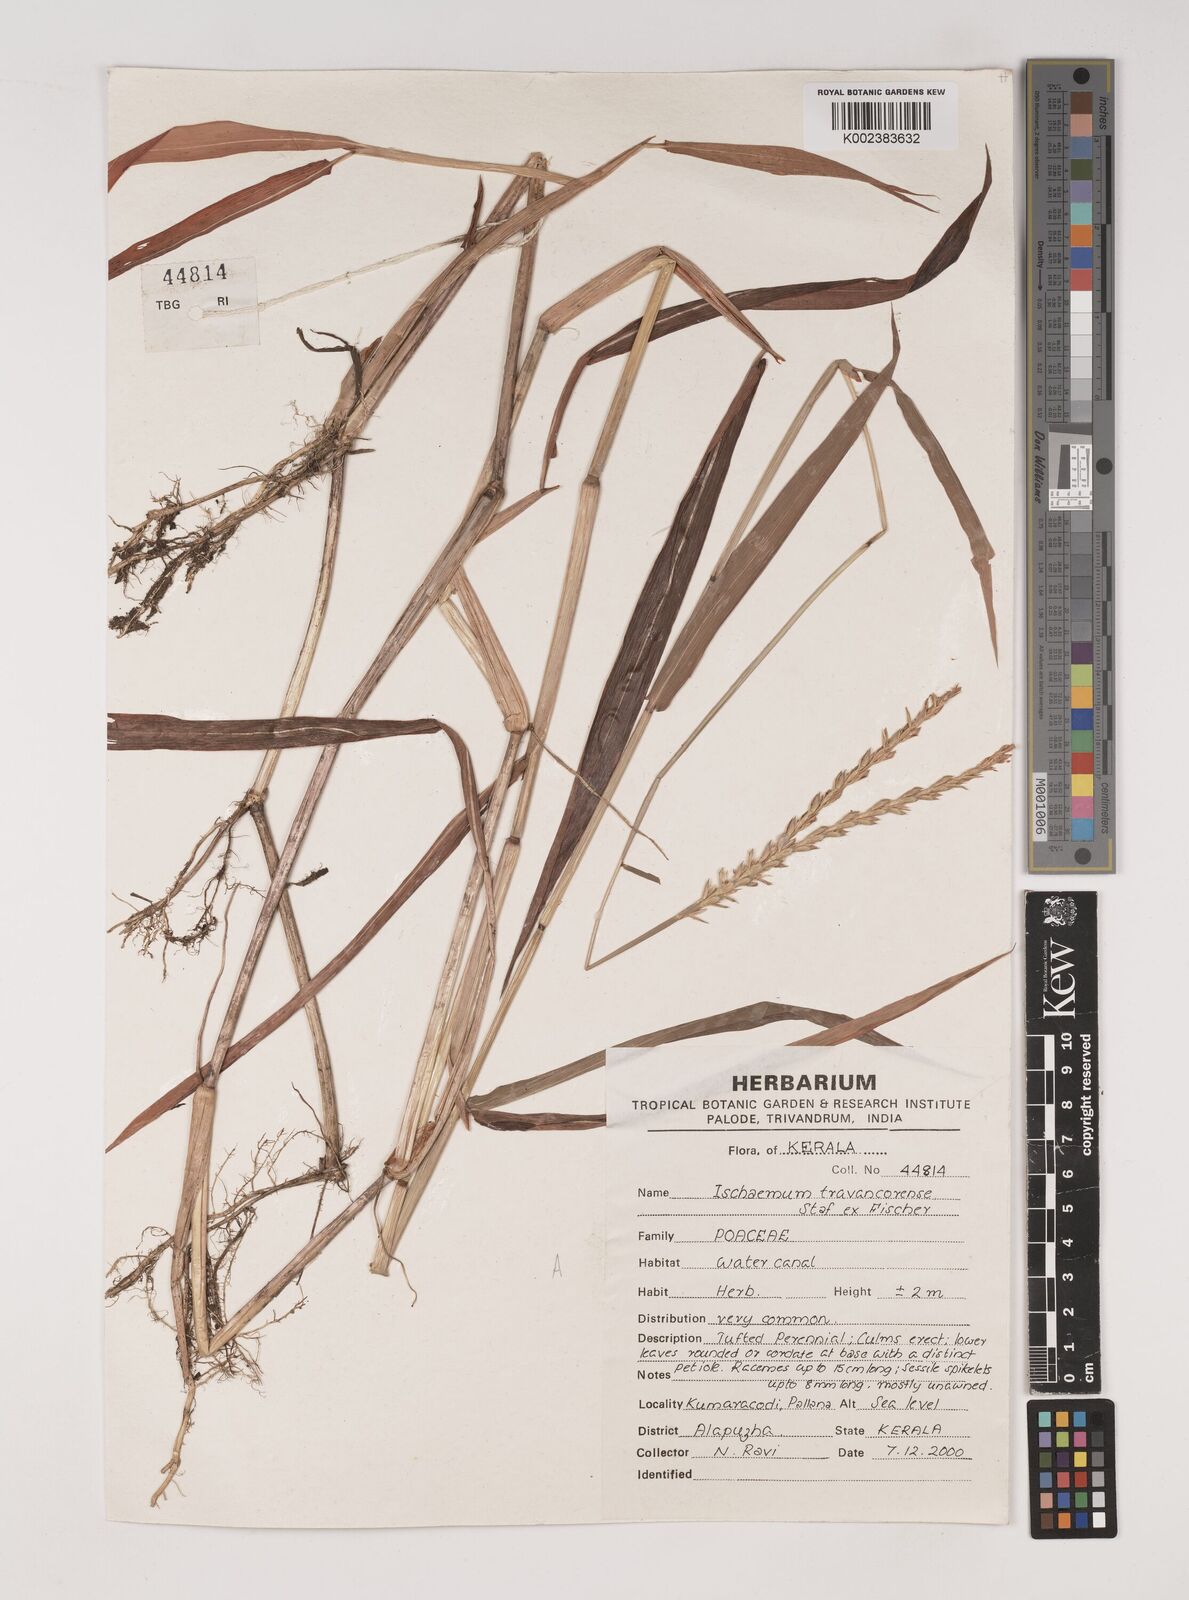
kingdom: Plantae
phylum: Tracheophyta
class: Liliopsida
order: Poales
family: Poaceae
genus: Ischaemum
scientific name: Ischaemum travancorense
